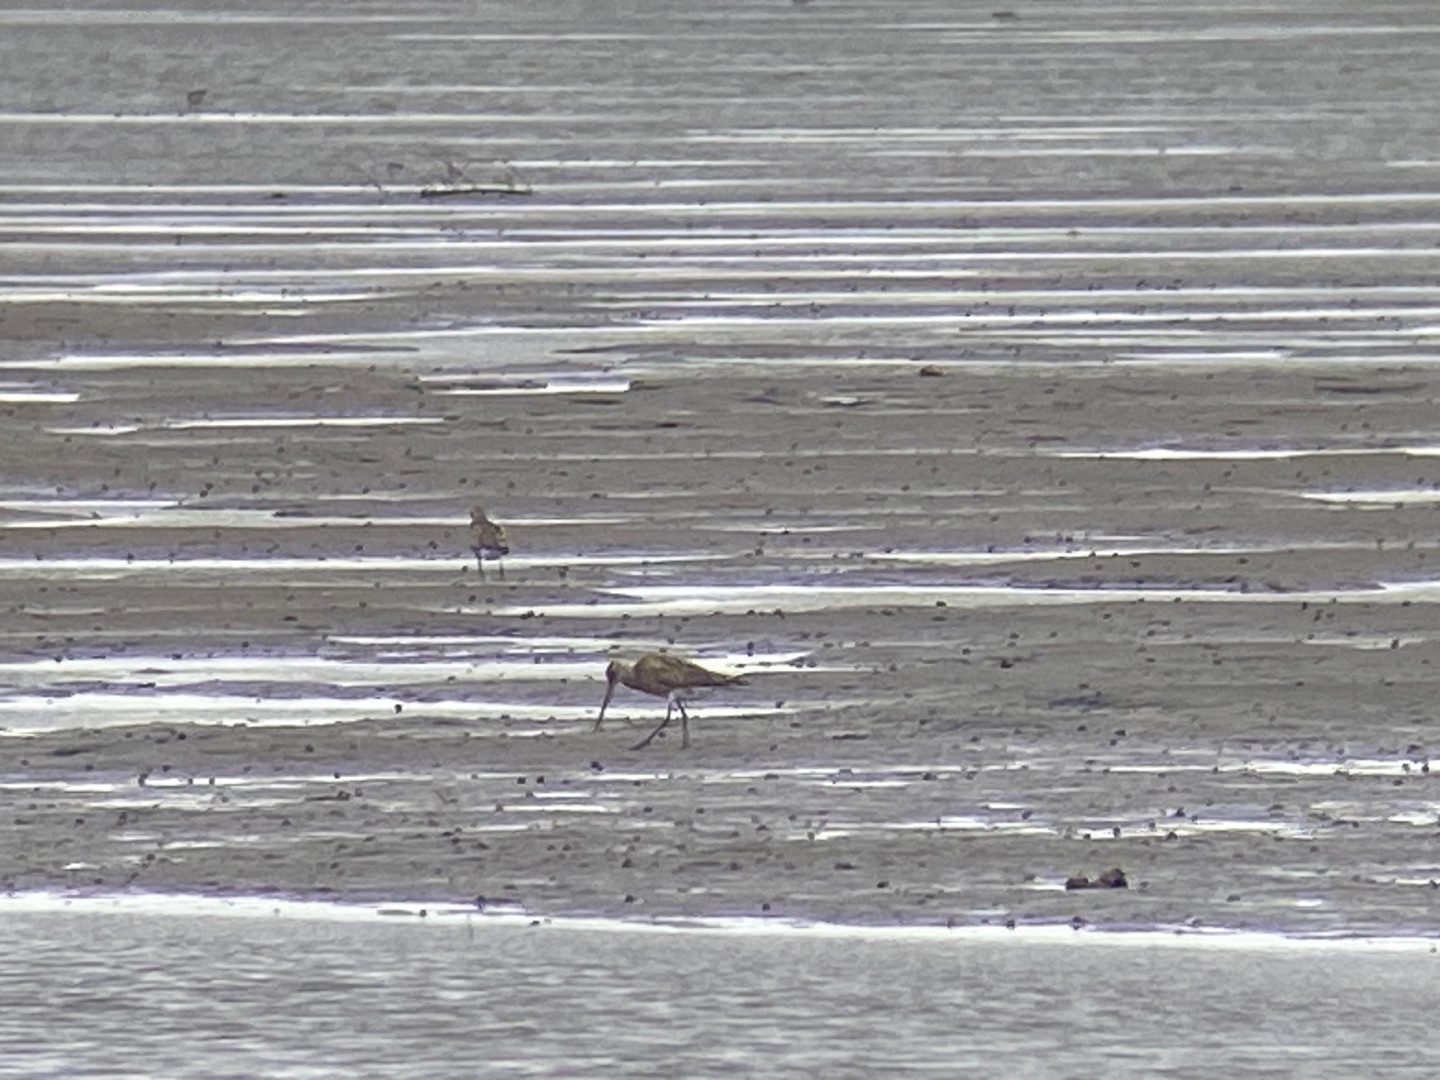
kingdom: Animalia
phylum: Chordata
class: Aves
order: Charadriiformes
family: Scolopacidae
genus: Limosa
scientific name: Limosa lapponica
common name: Lille kobbersneppe
